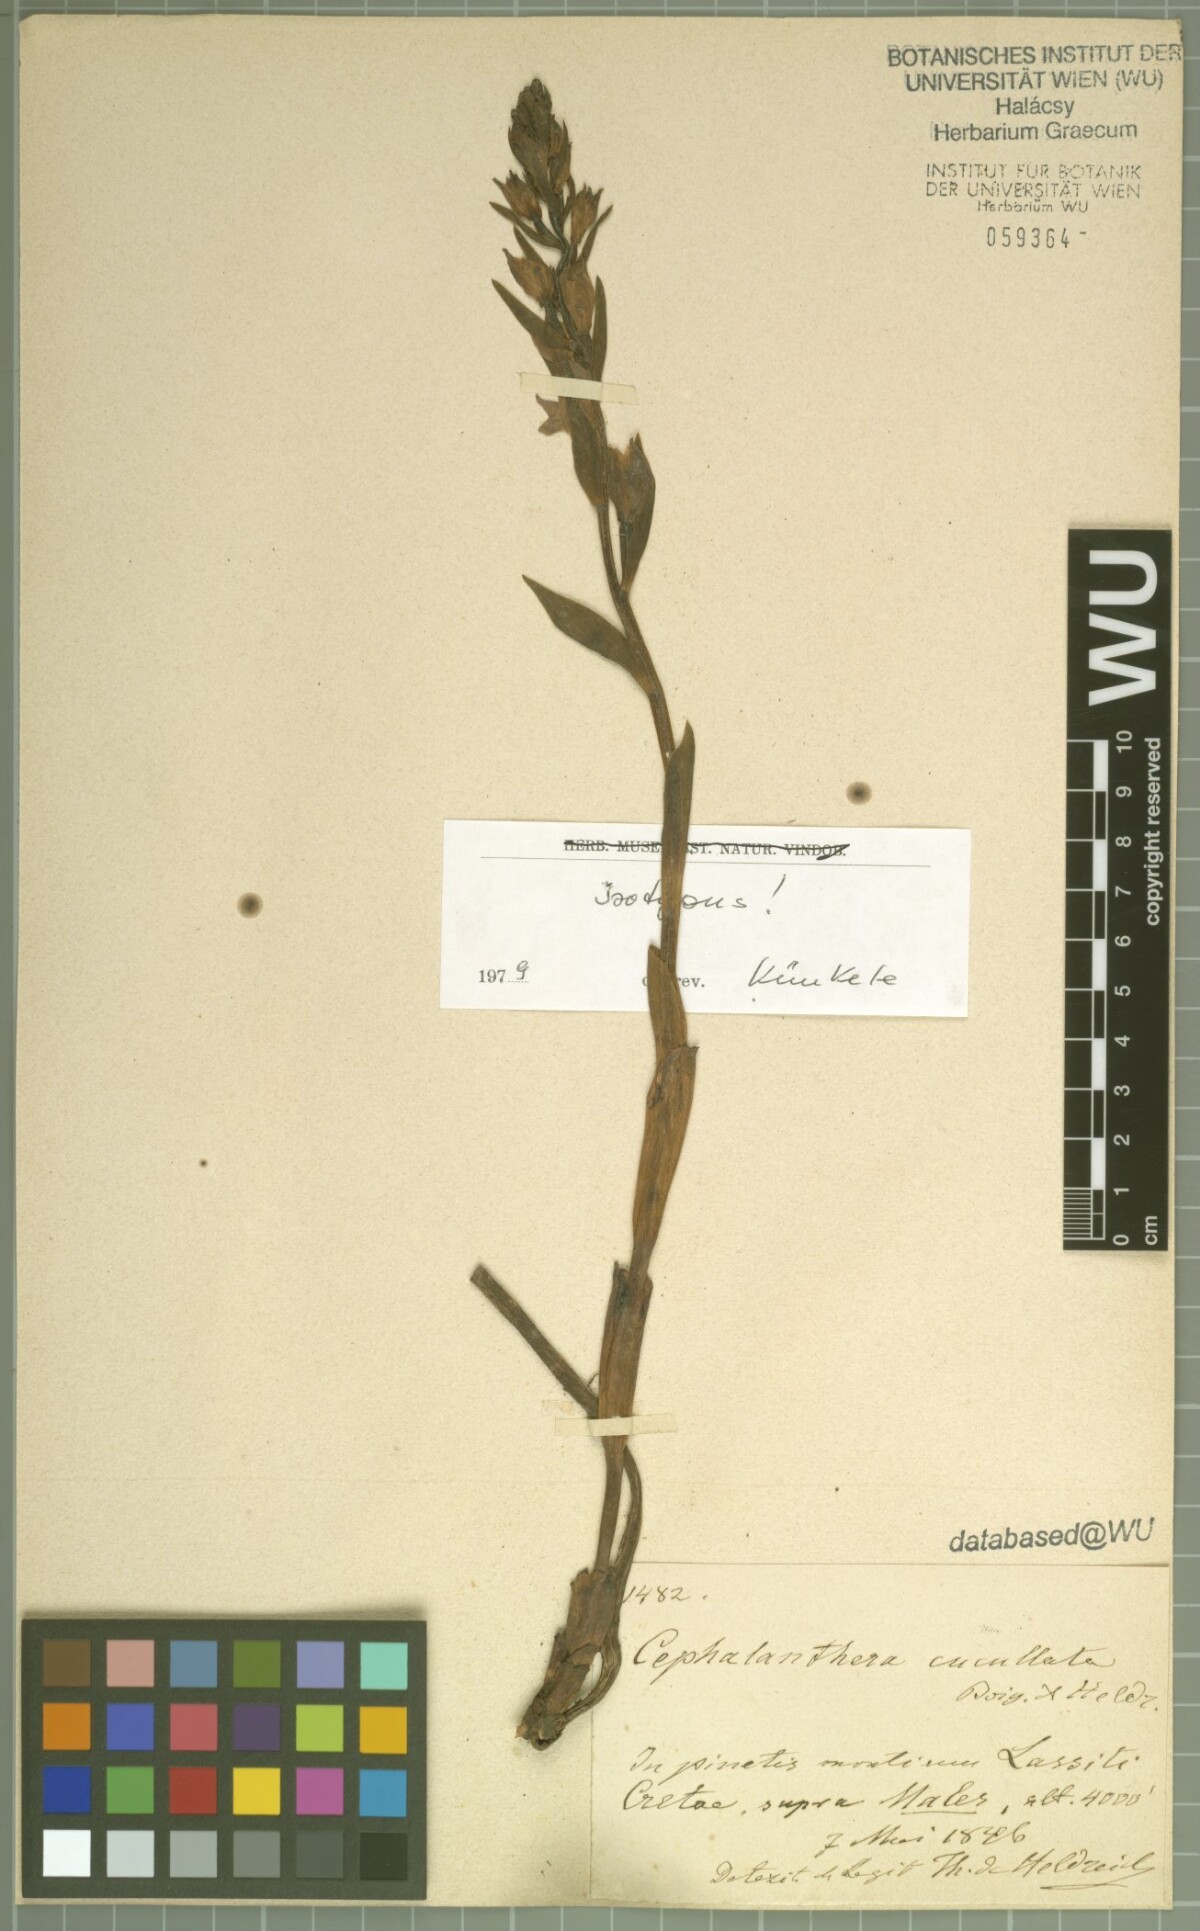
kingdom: Plantae
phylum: Tracheophyta
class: Liliopsida
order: Asparagales
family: Orchidaceae
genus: Cephalanthera
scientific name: Cephalanthera cucullata
